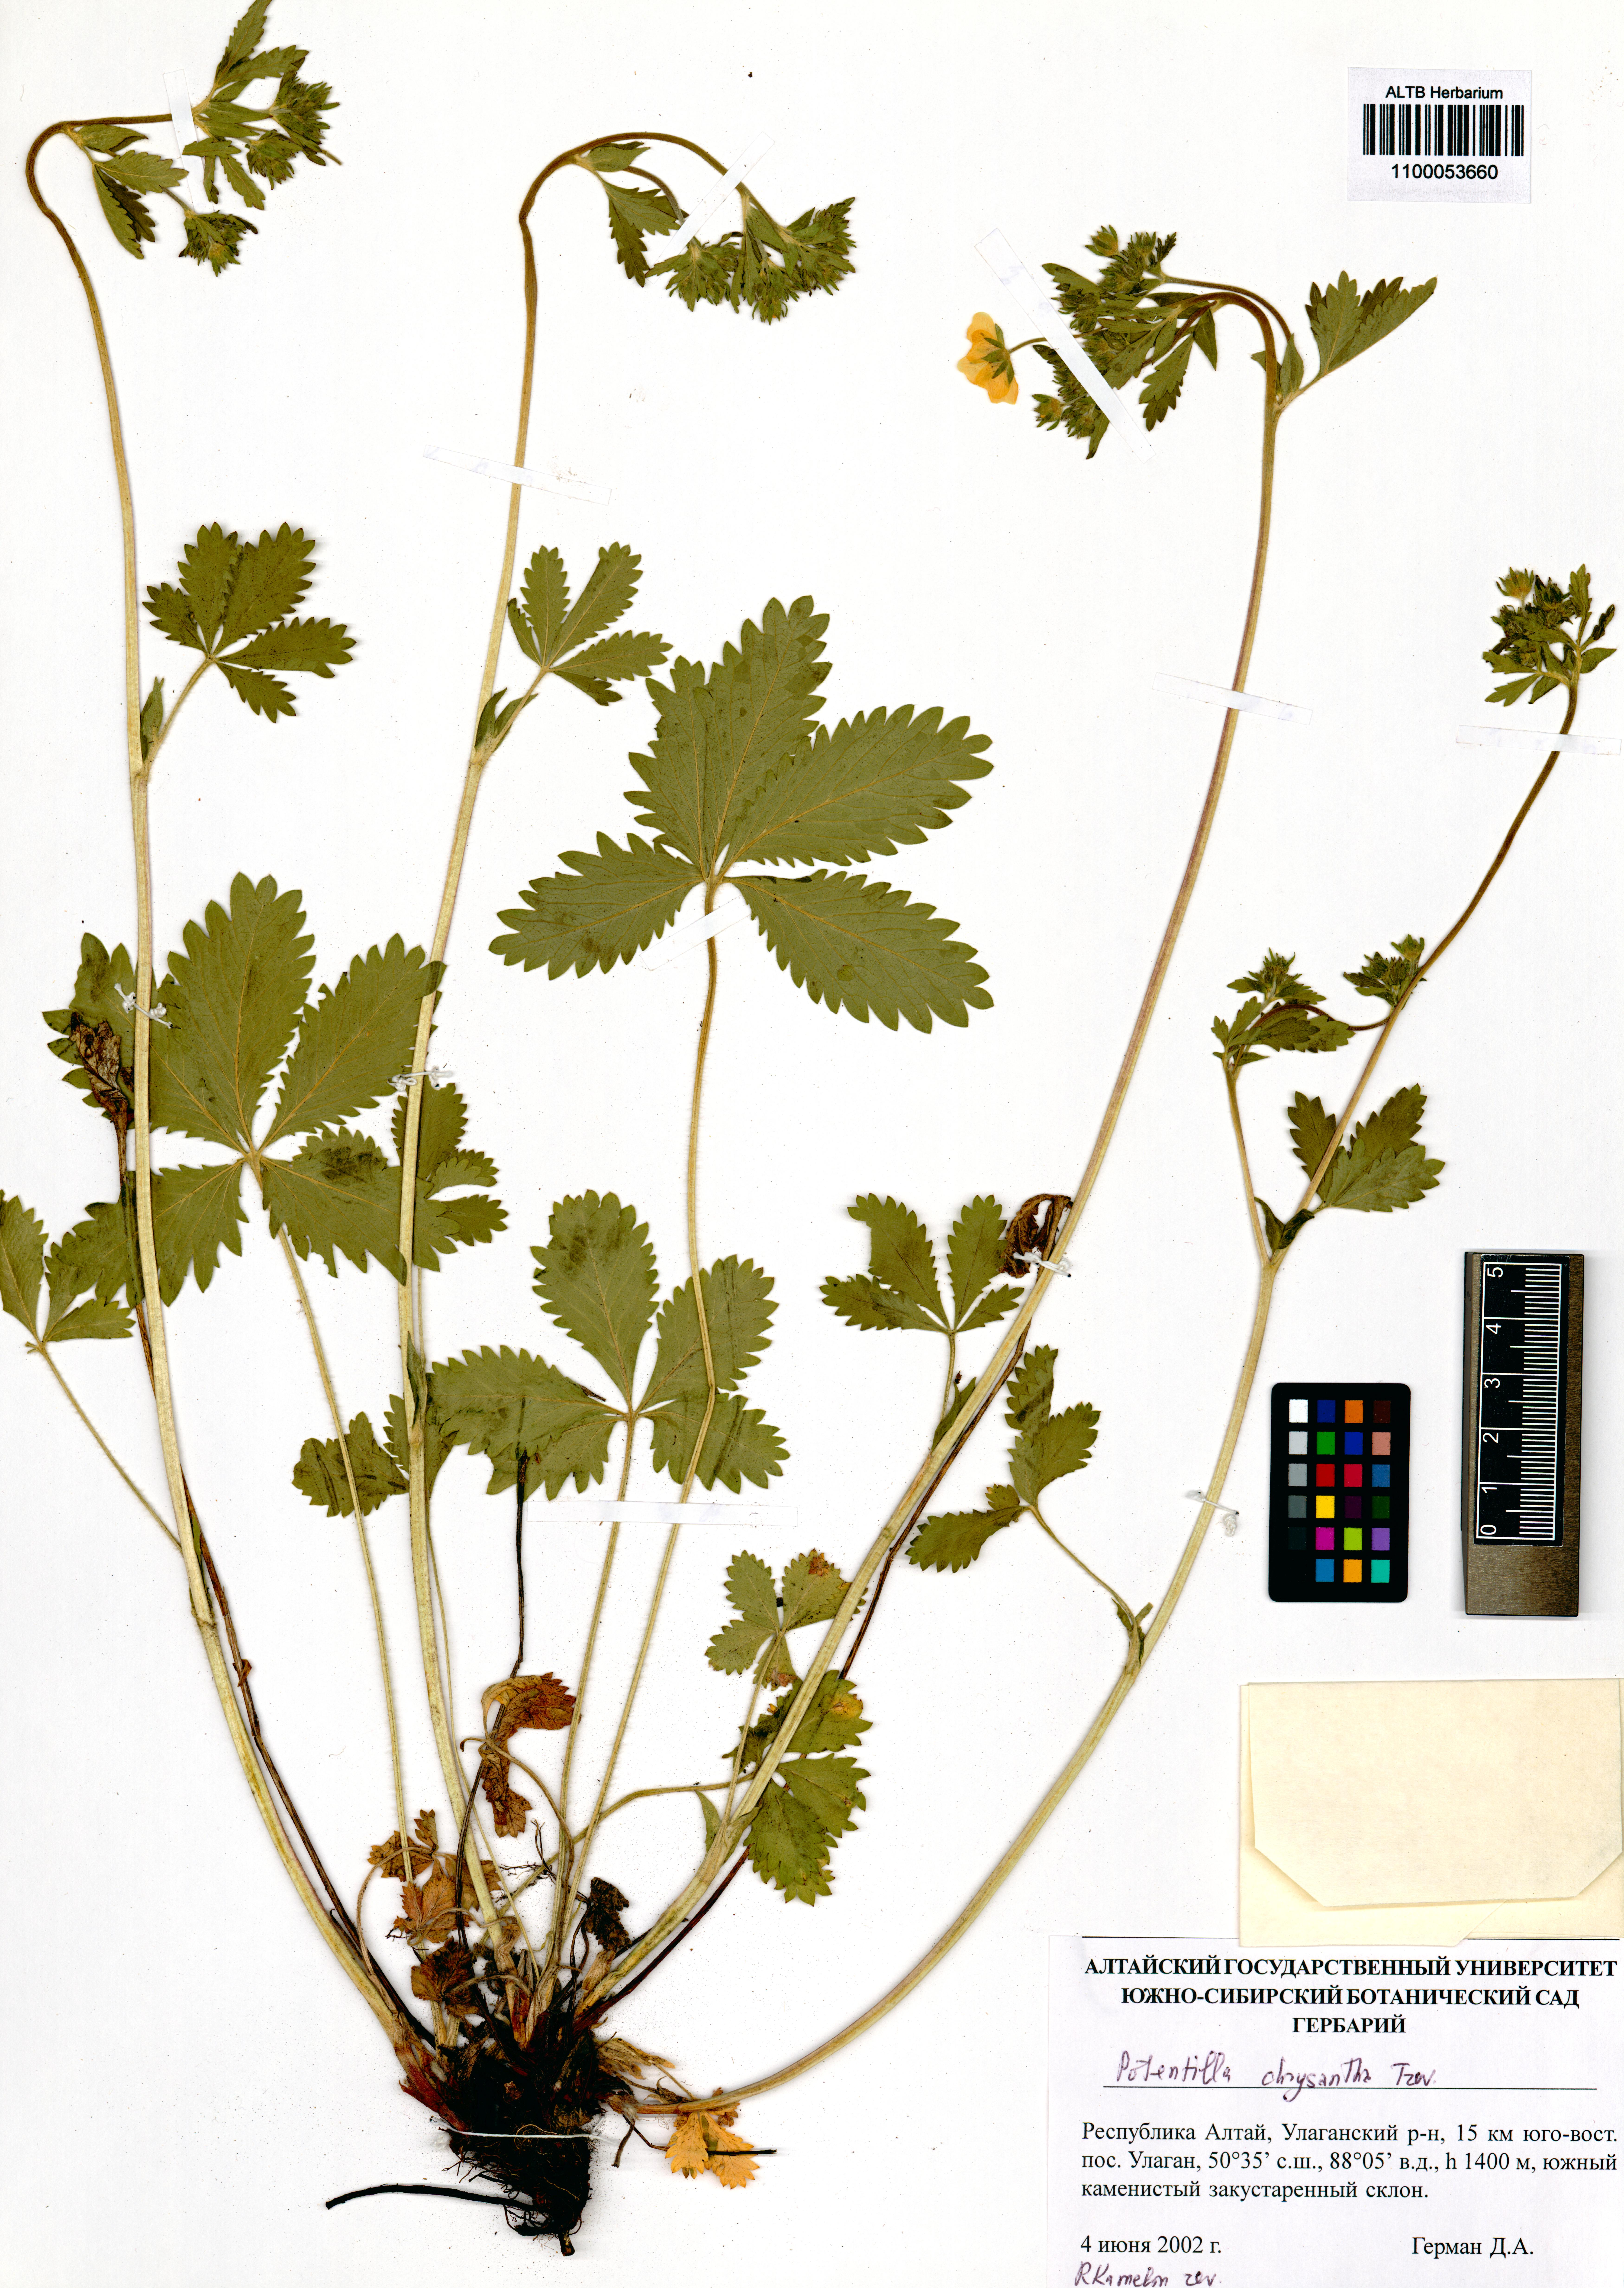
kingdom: Plantae
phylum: Tracheophyta
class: Magnoliopsida
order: Rosales
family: Rosaceae
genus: Potentilla
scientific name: Potentilla chrysantha
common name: Thuringian cinquefoil
